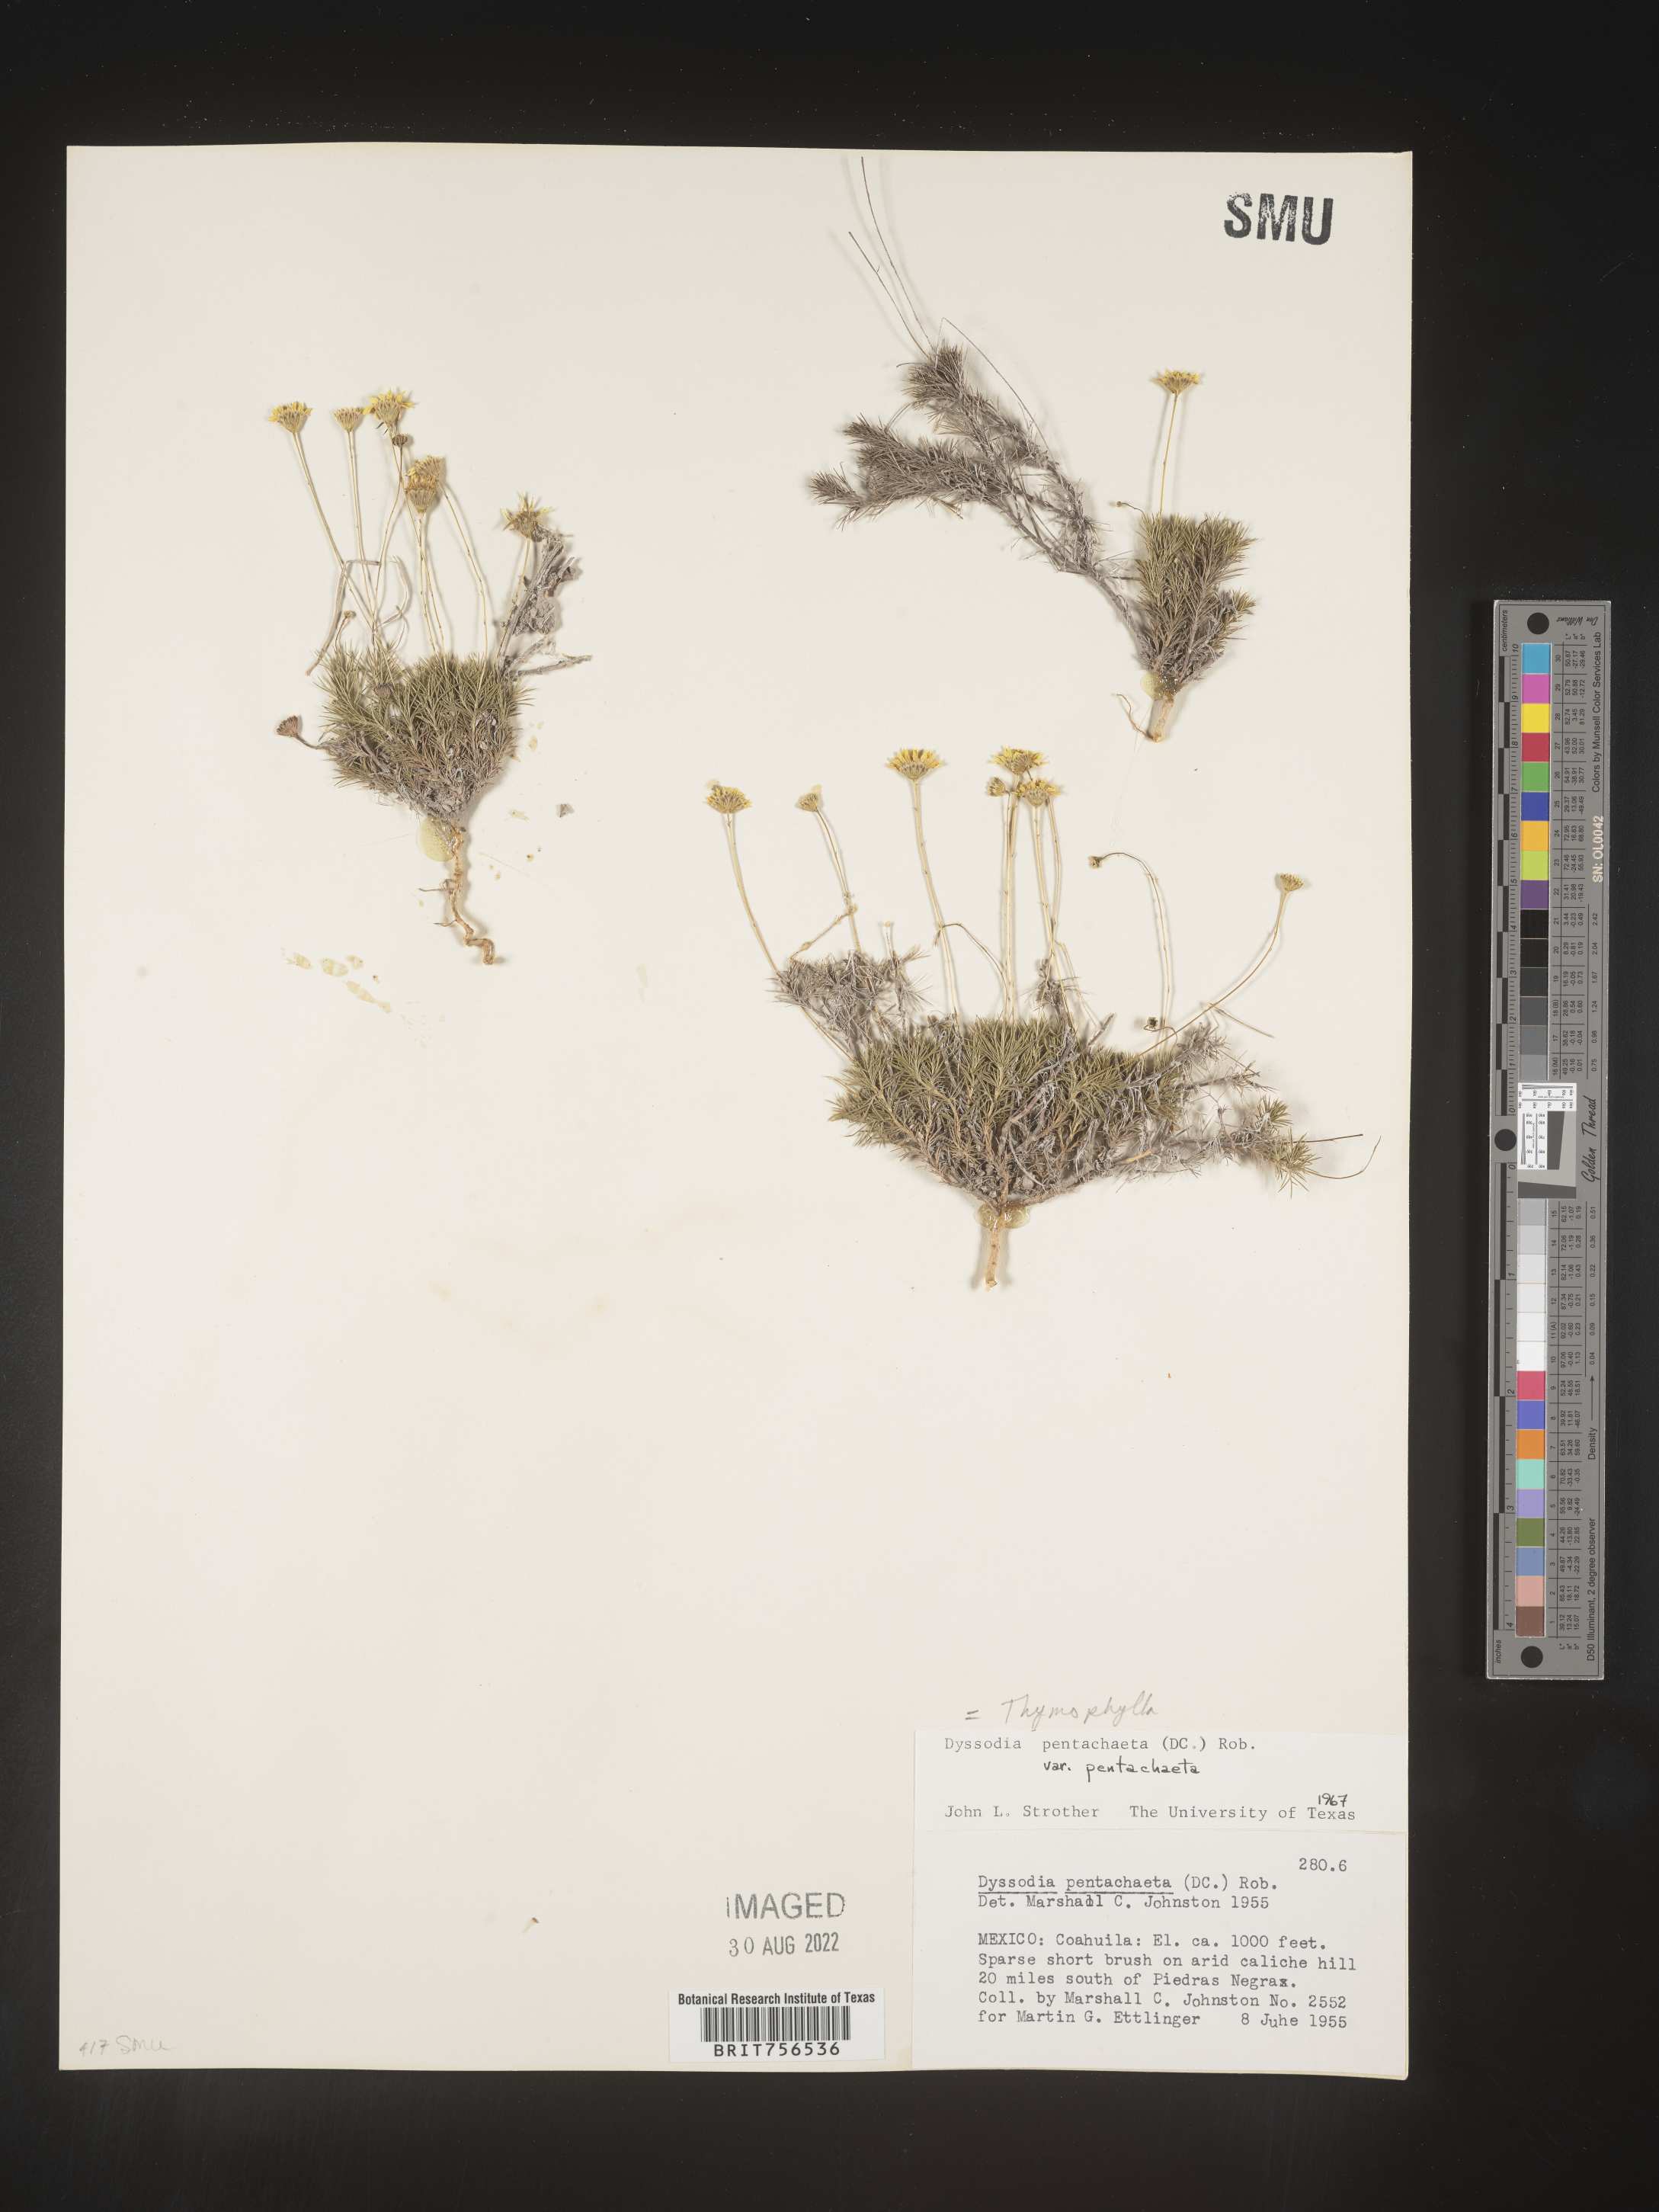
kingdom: Plantae
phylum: Tracheophyta
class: Magnoliopsida
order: Asterales
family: Asteraceae
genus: Thymophylla
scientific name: Thymophylla pentachaeta
